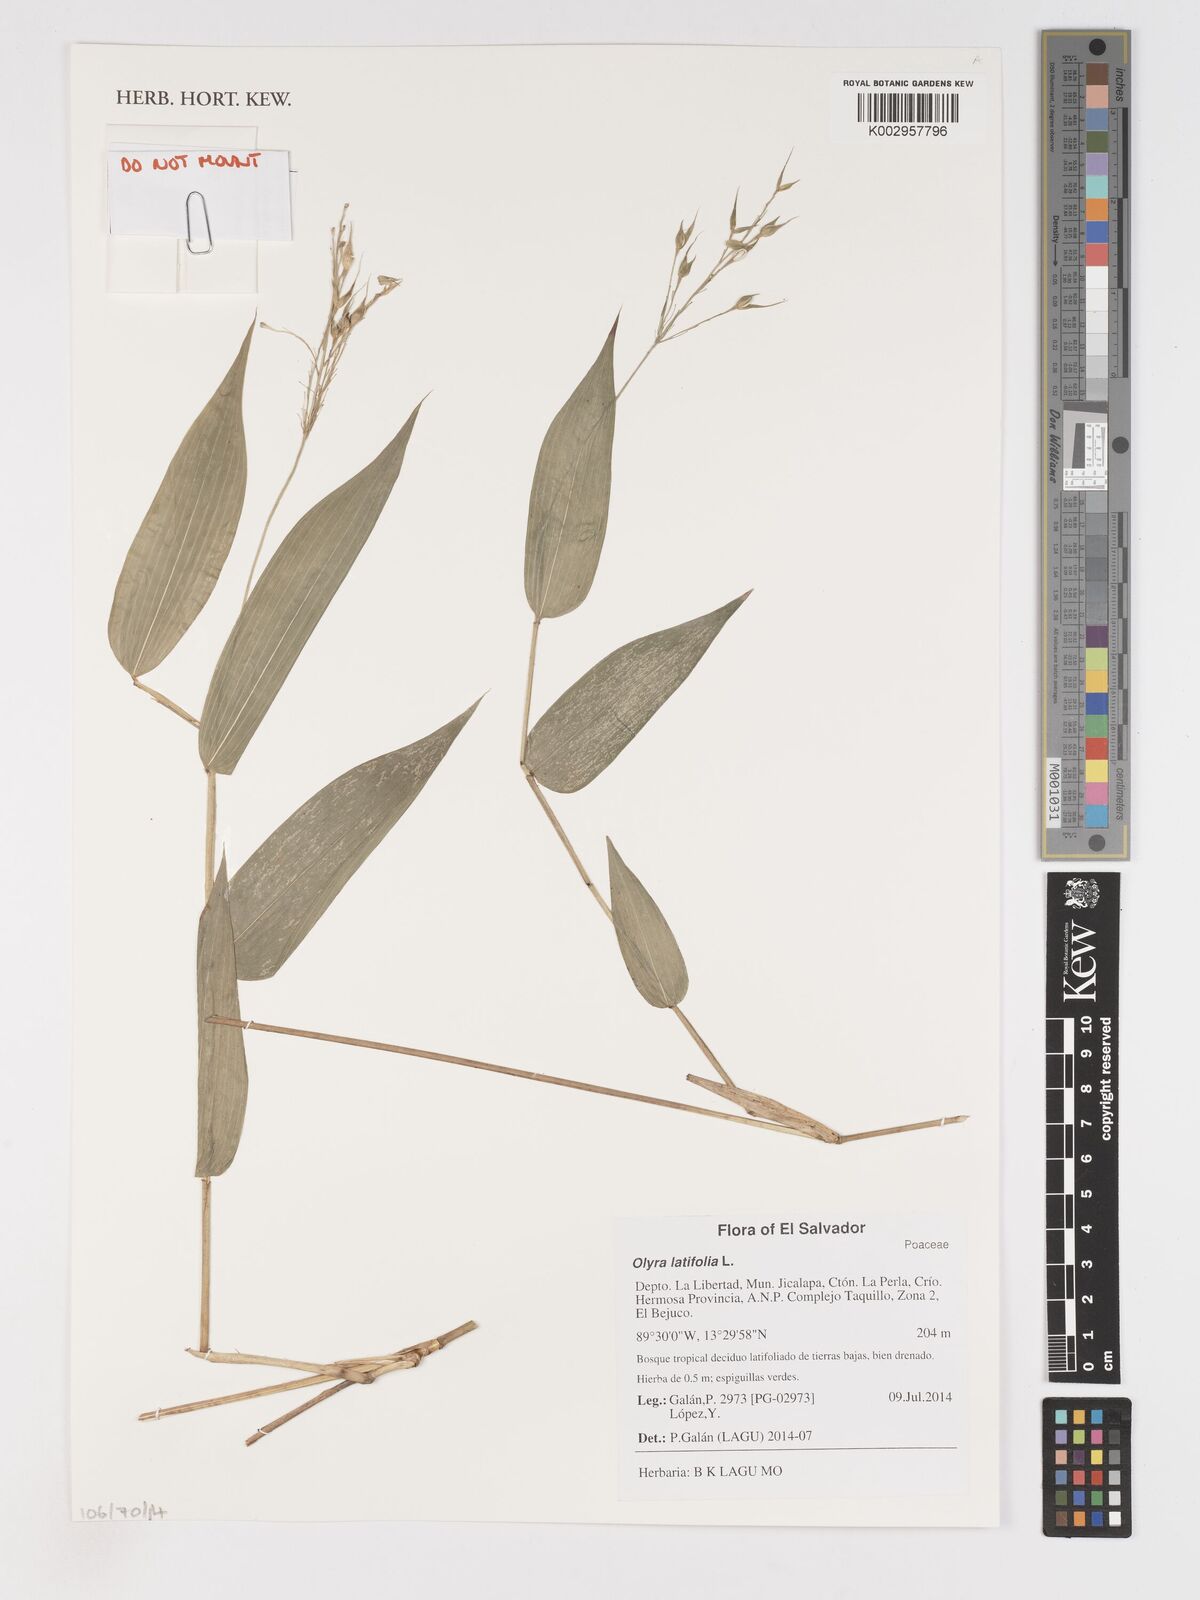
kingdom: Plantae
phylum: Tracheophyta
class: Liliopsida
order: Poales
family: Poaceae
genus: Olyra
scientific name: Olyra latifolia
